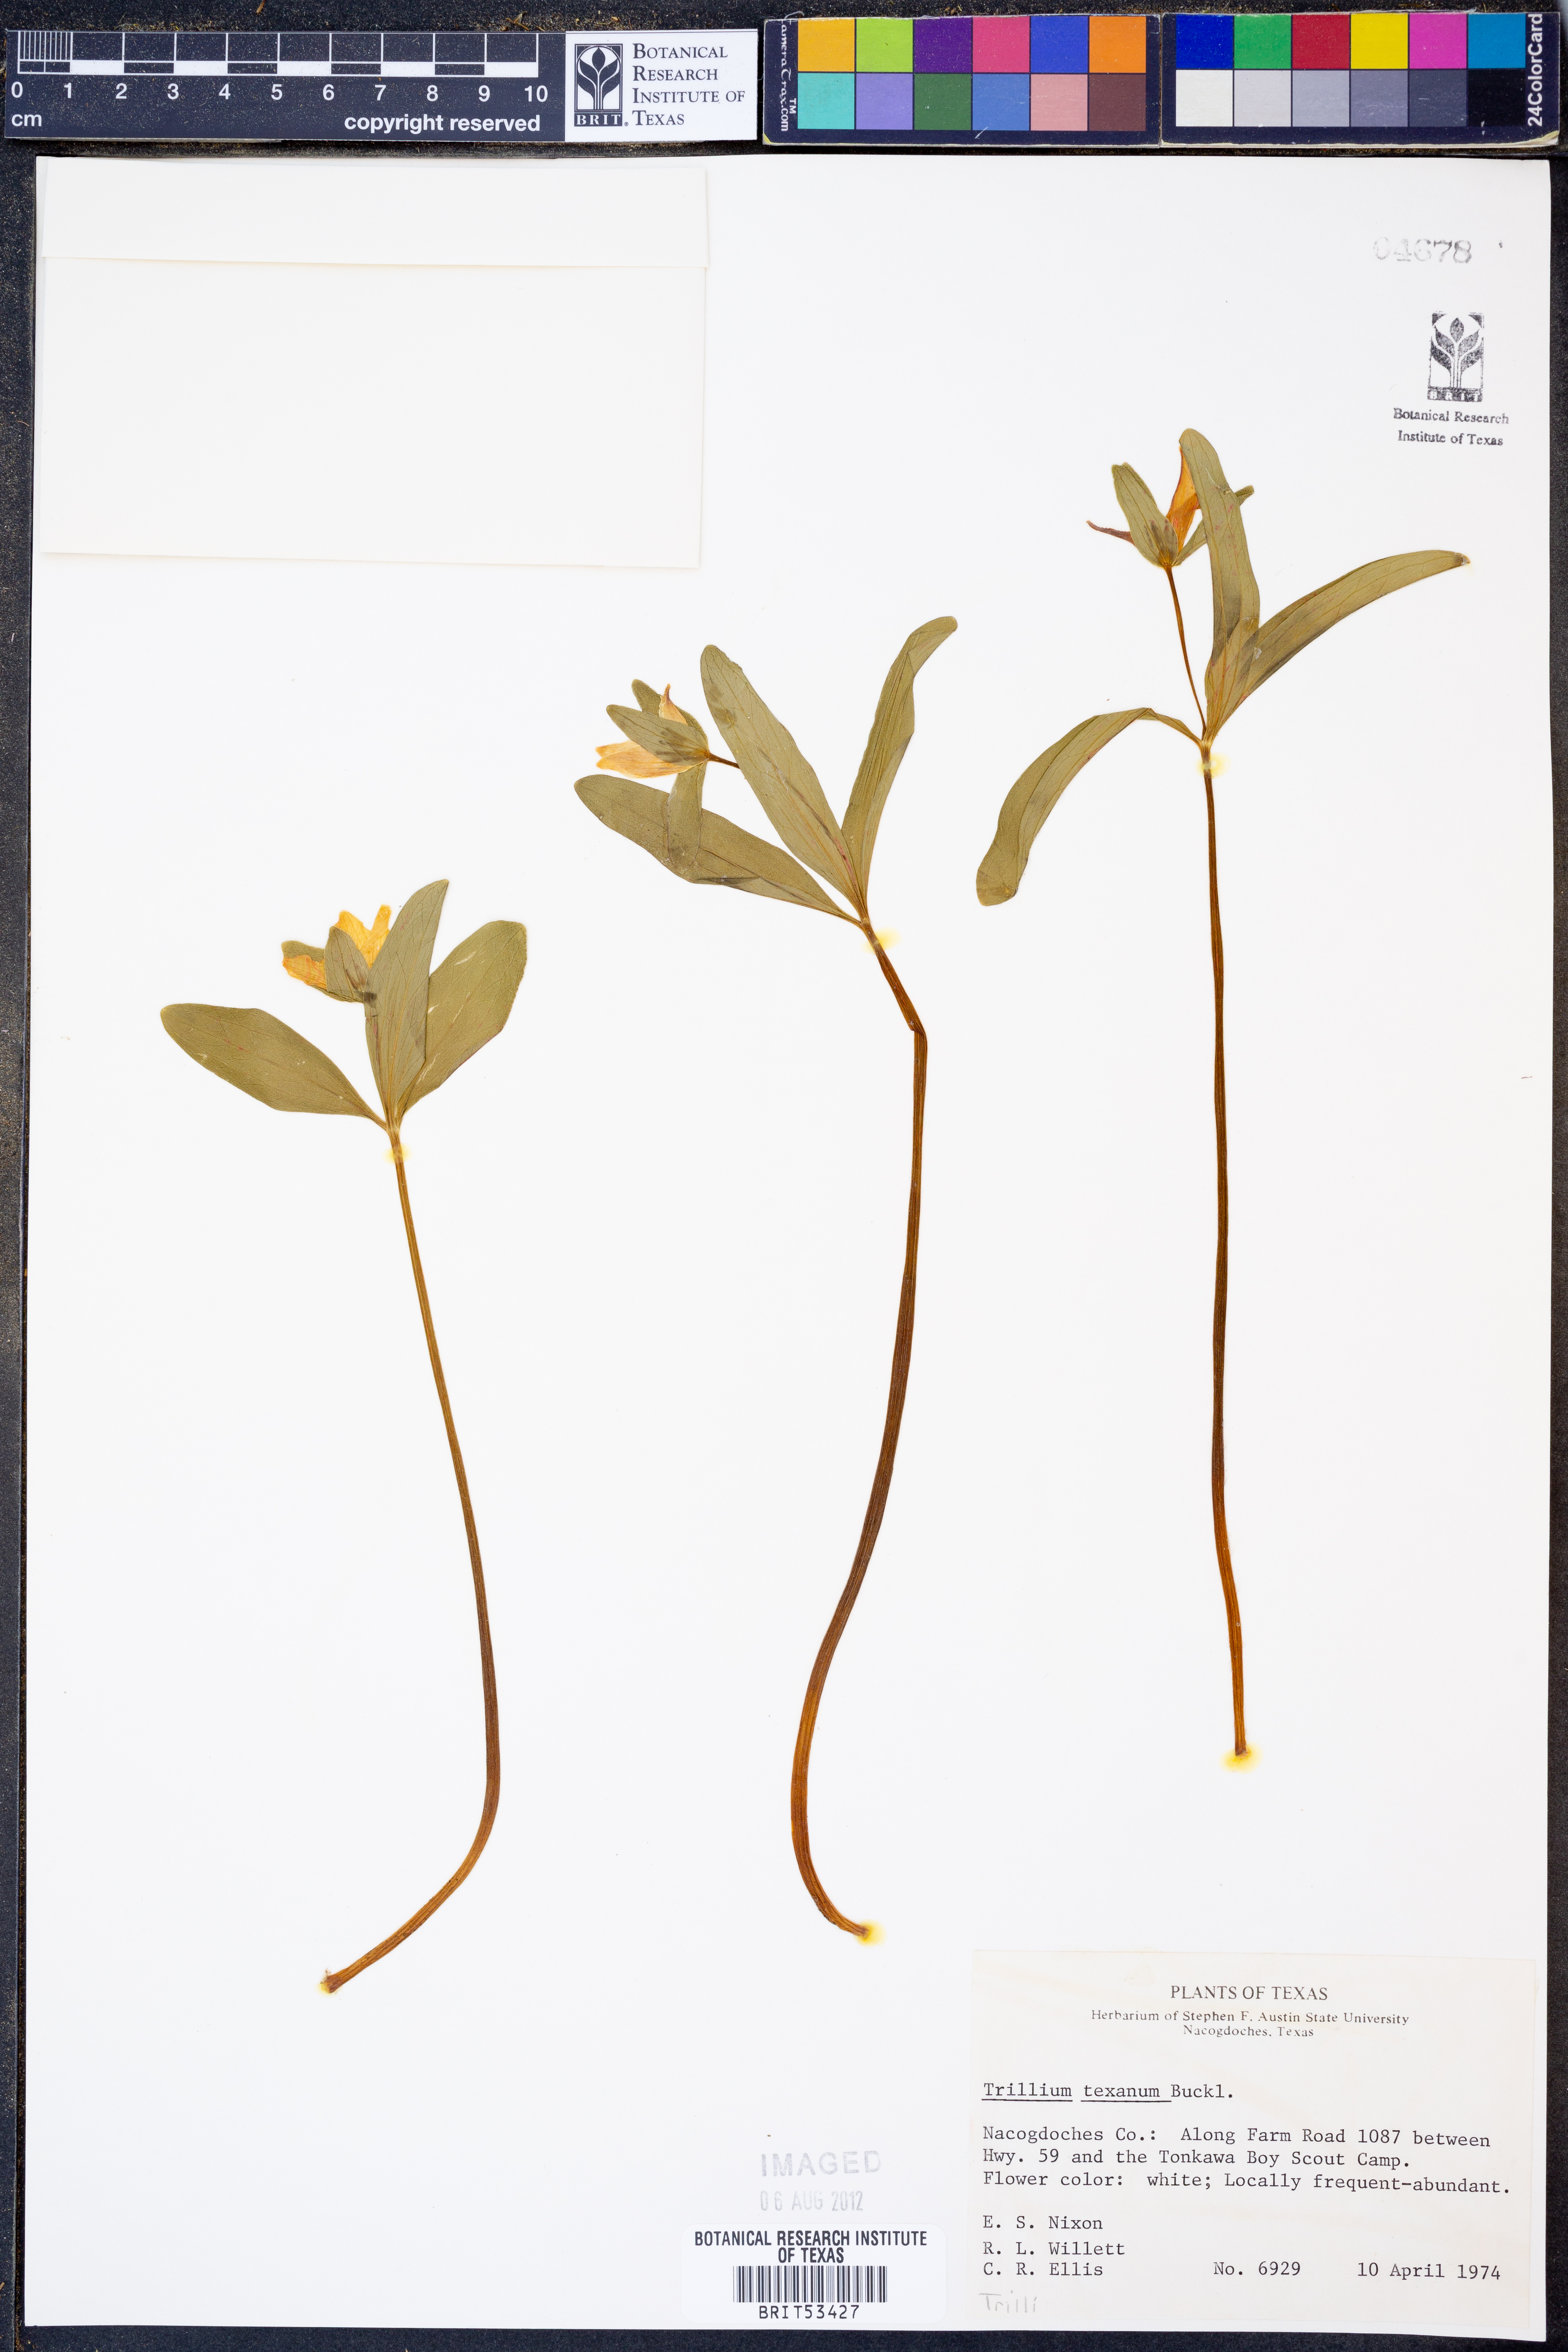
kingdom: Plantae
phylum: Tracheophyta
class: Liliopsida
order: Liliales
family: Melanthiaceae
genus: Trillium
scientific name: Trillium pusillum
